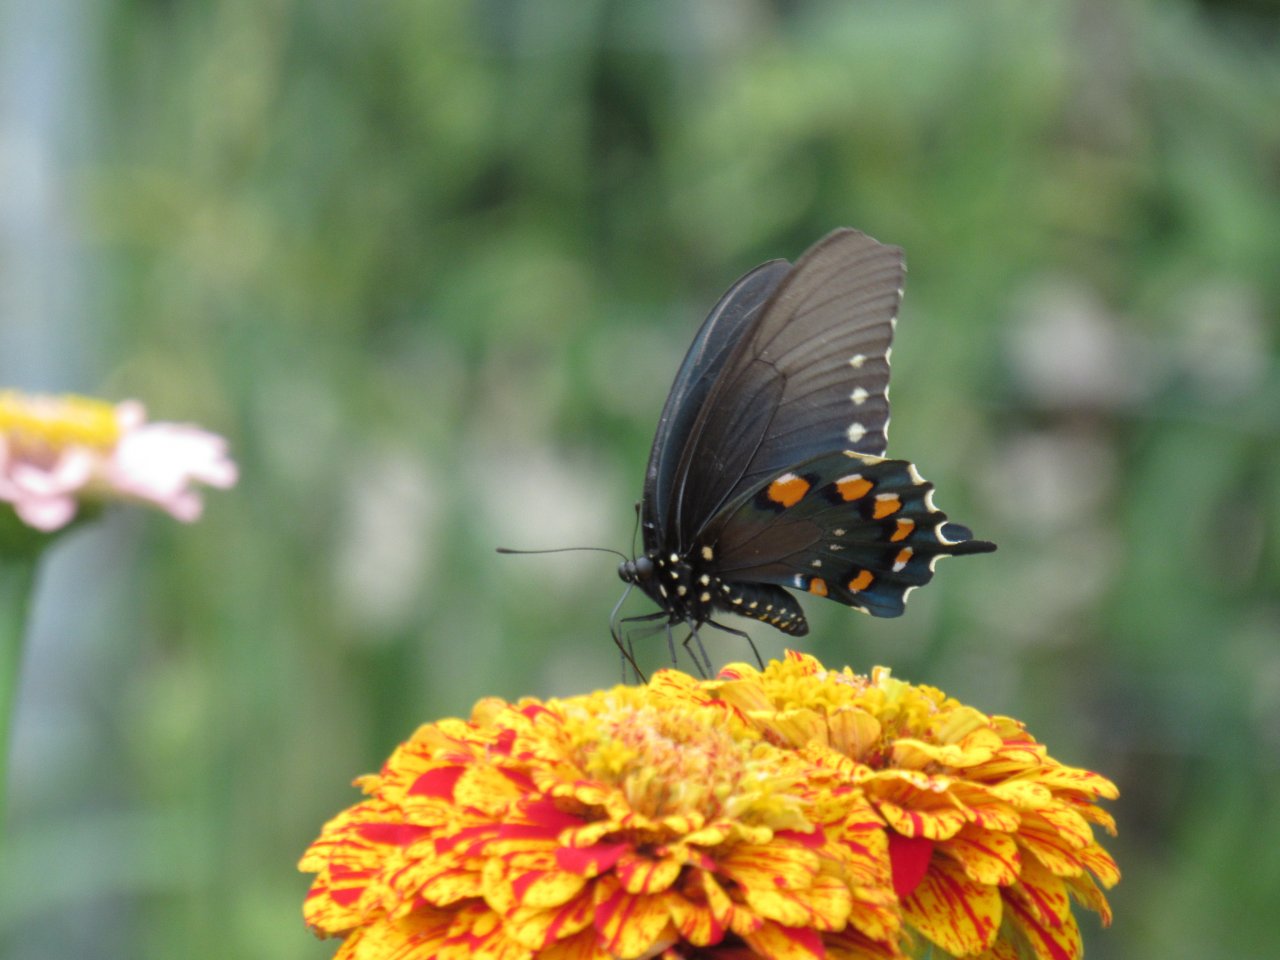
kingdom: Animalia
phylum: Arthropoda
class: Insecta
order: Lepidoptera
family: Papilionidae
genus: Battus
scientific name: Battus philenor
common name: Pipevine Swallowtail
